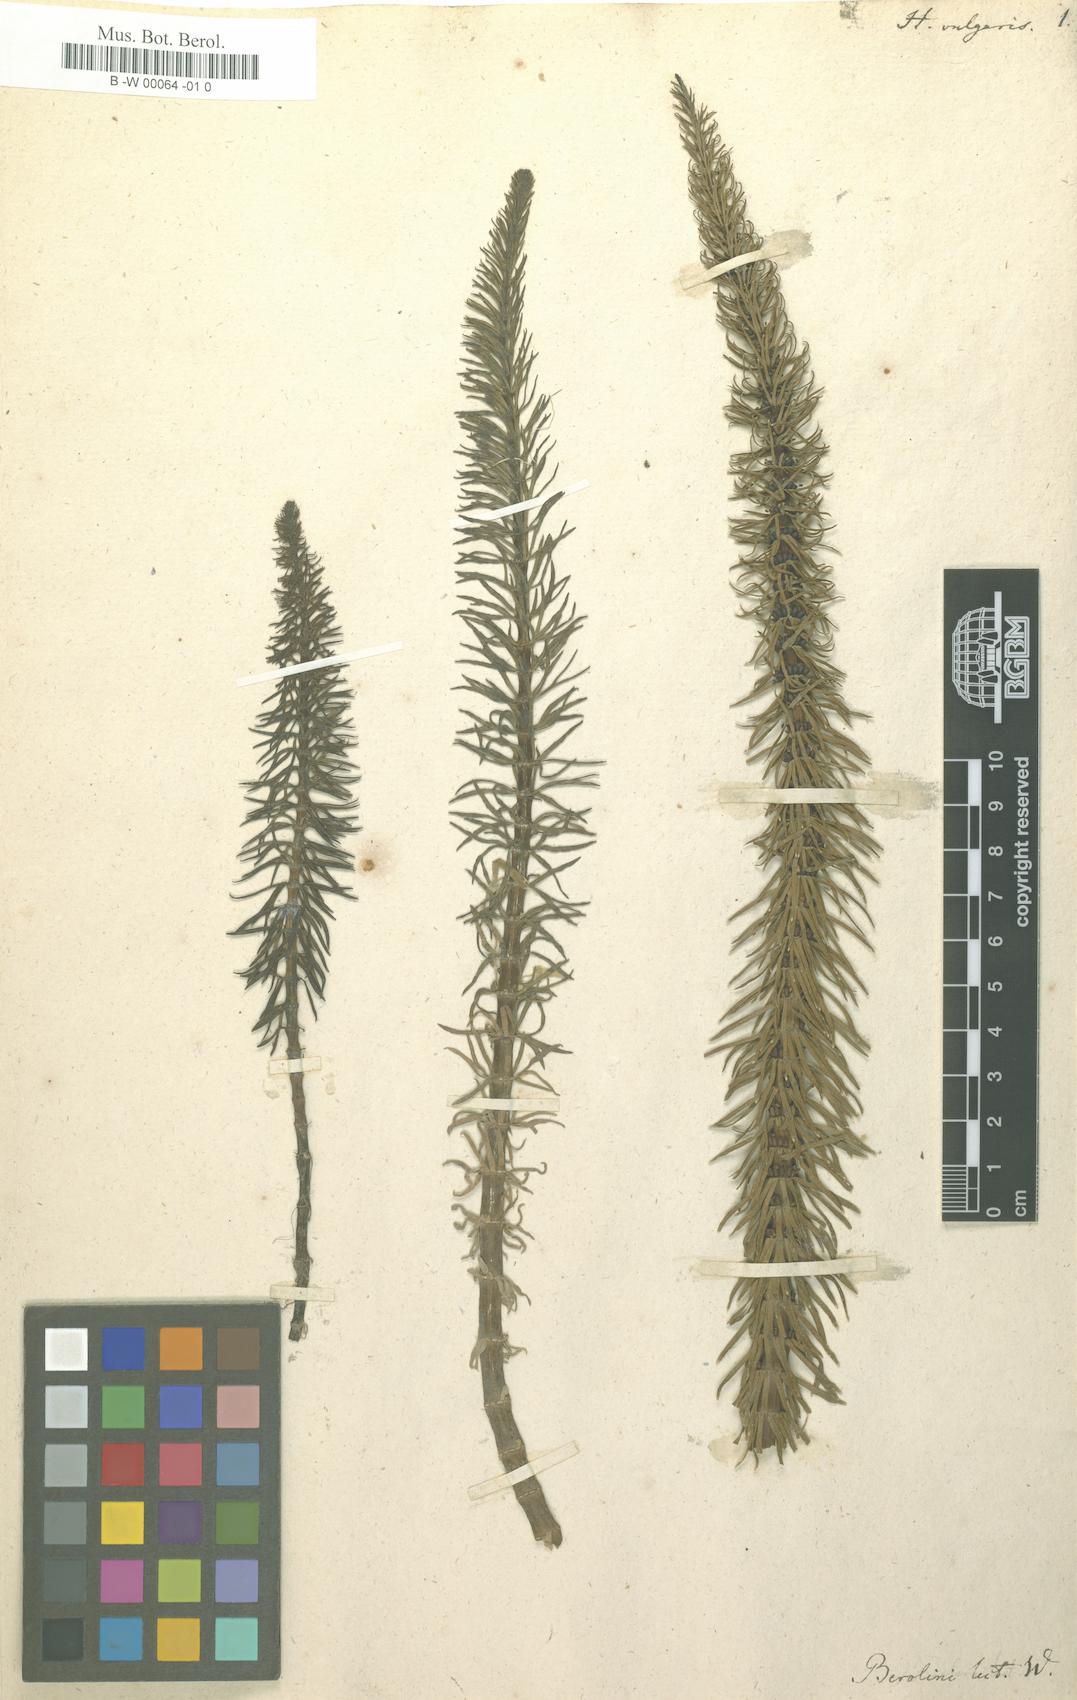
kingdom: Plantae
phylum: Tracheophyta
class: Magnoliopsida
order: Lamiales
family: Plantaginaceae
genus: Hippuris
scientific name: Hippuris vulgaris
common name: Mare's-tail
